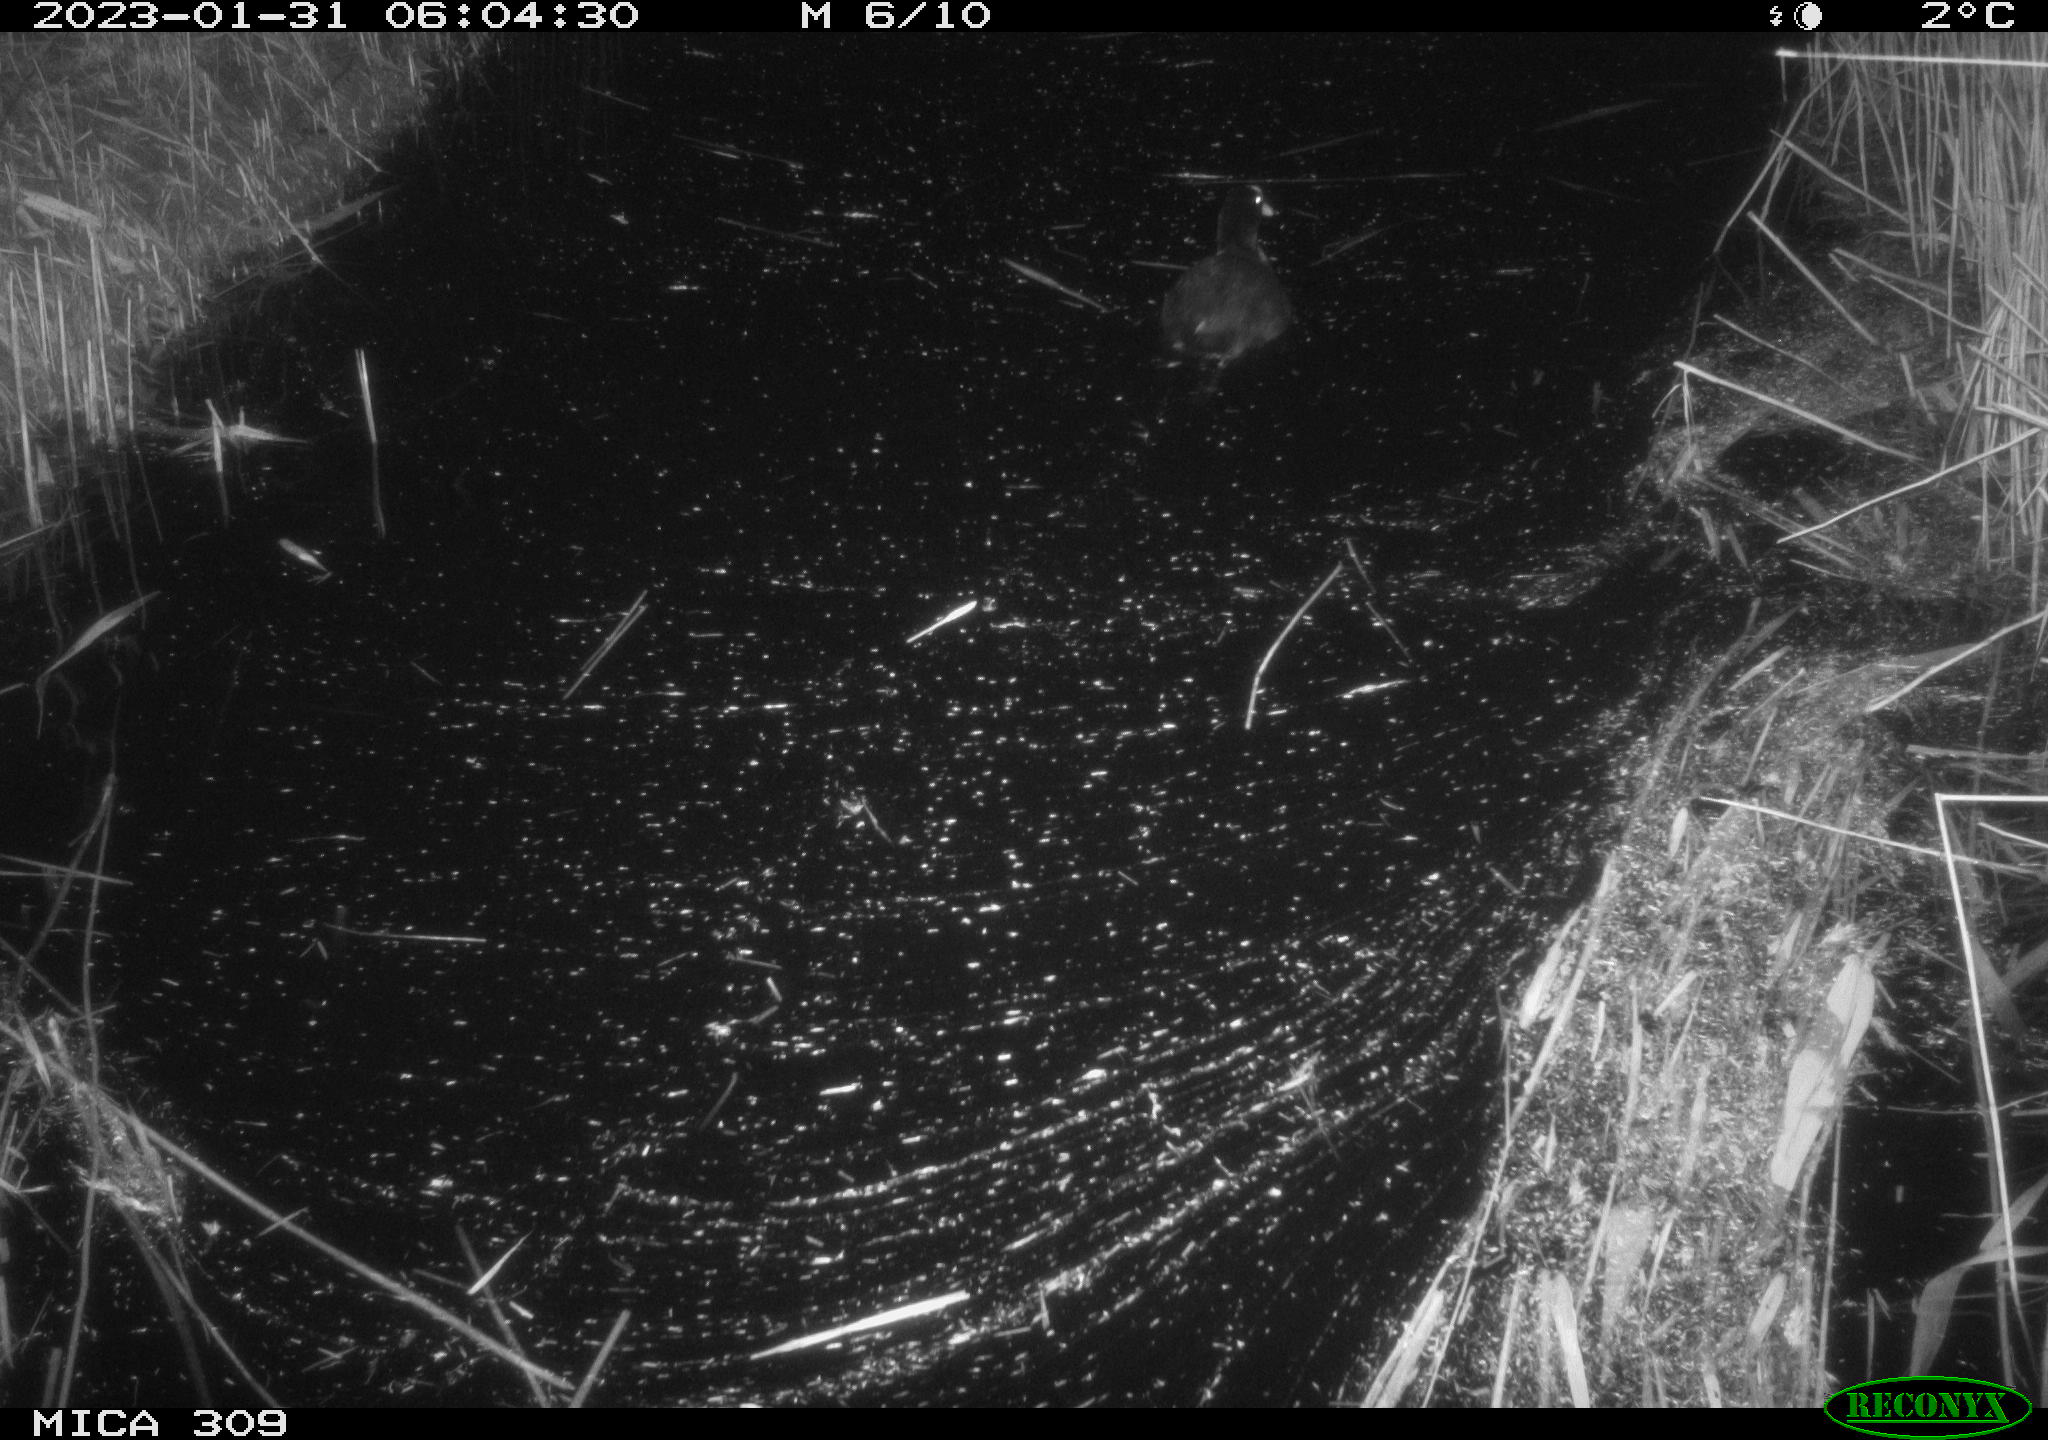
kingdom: Animalia
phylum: Chordata
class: Aves
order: Gruiformes
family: Rallidae
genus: Fulica
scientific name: Fulica atra
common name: Eurasian coot
